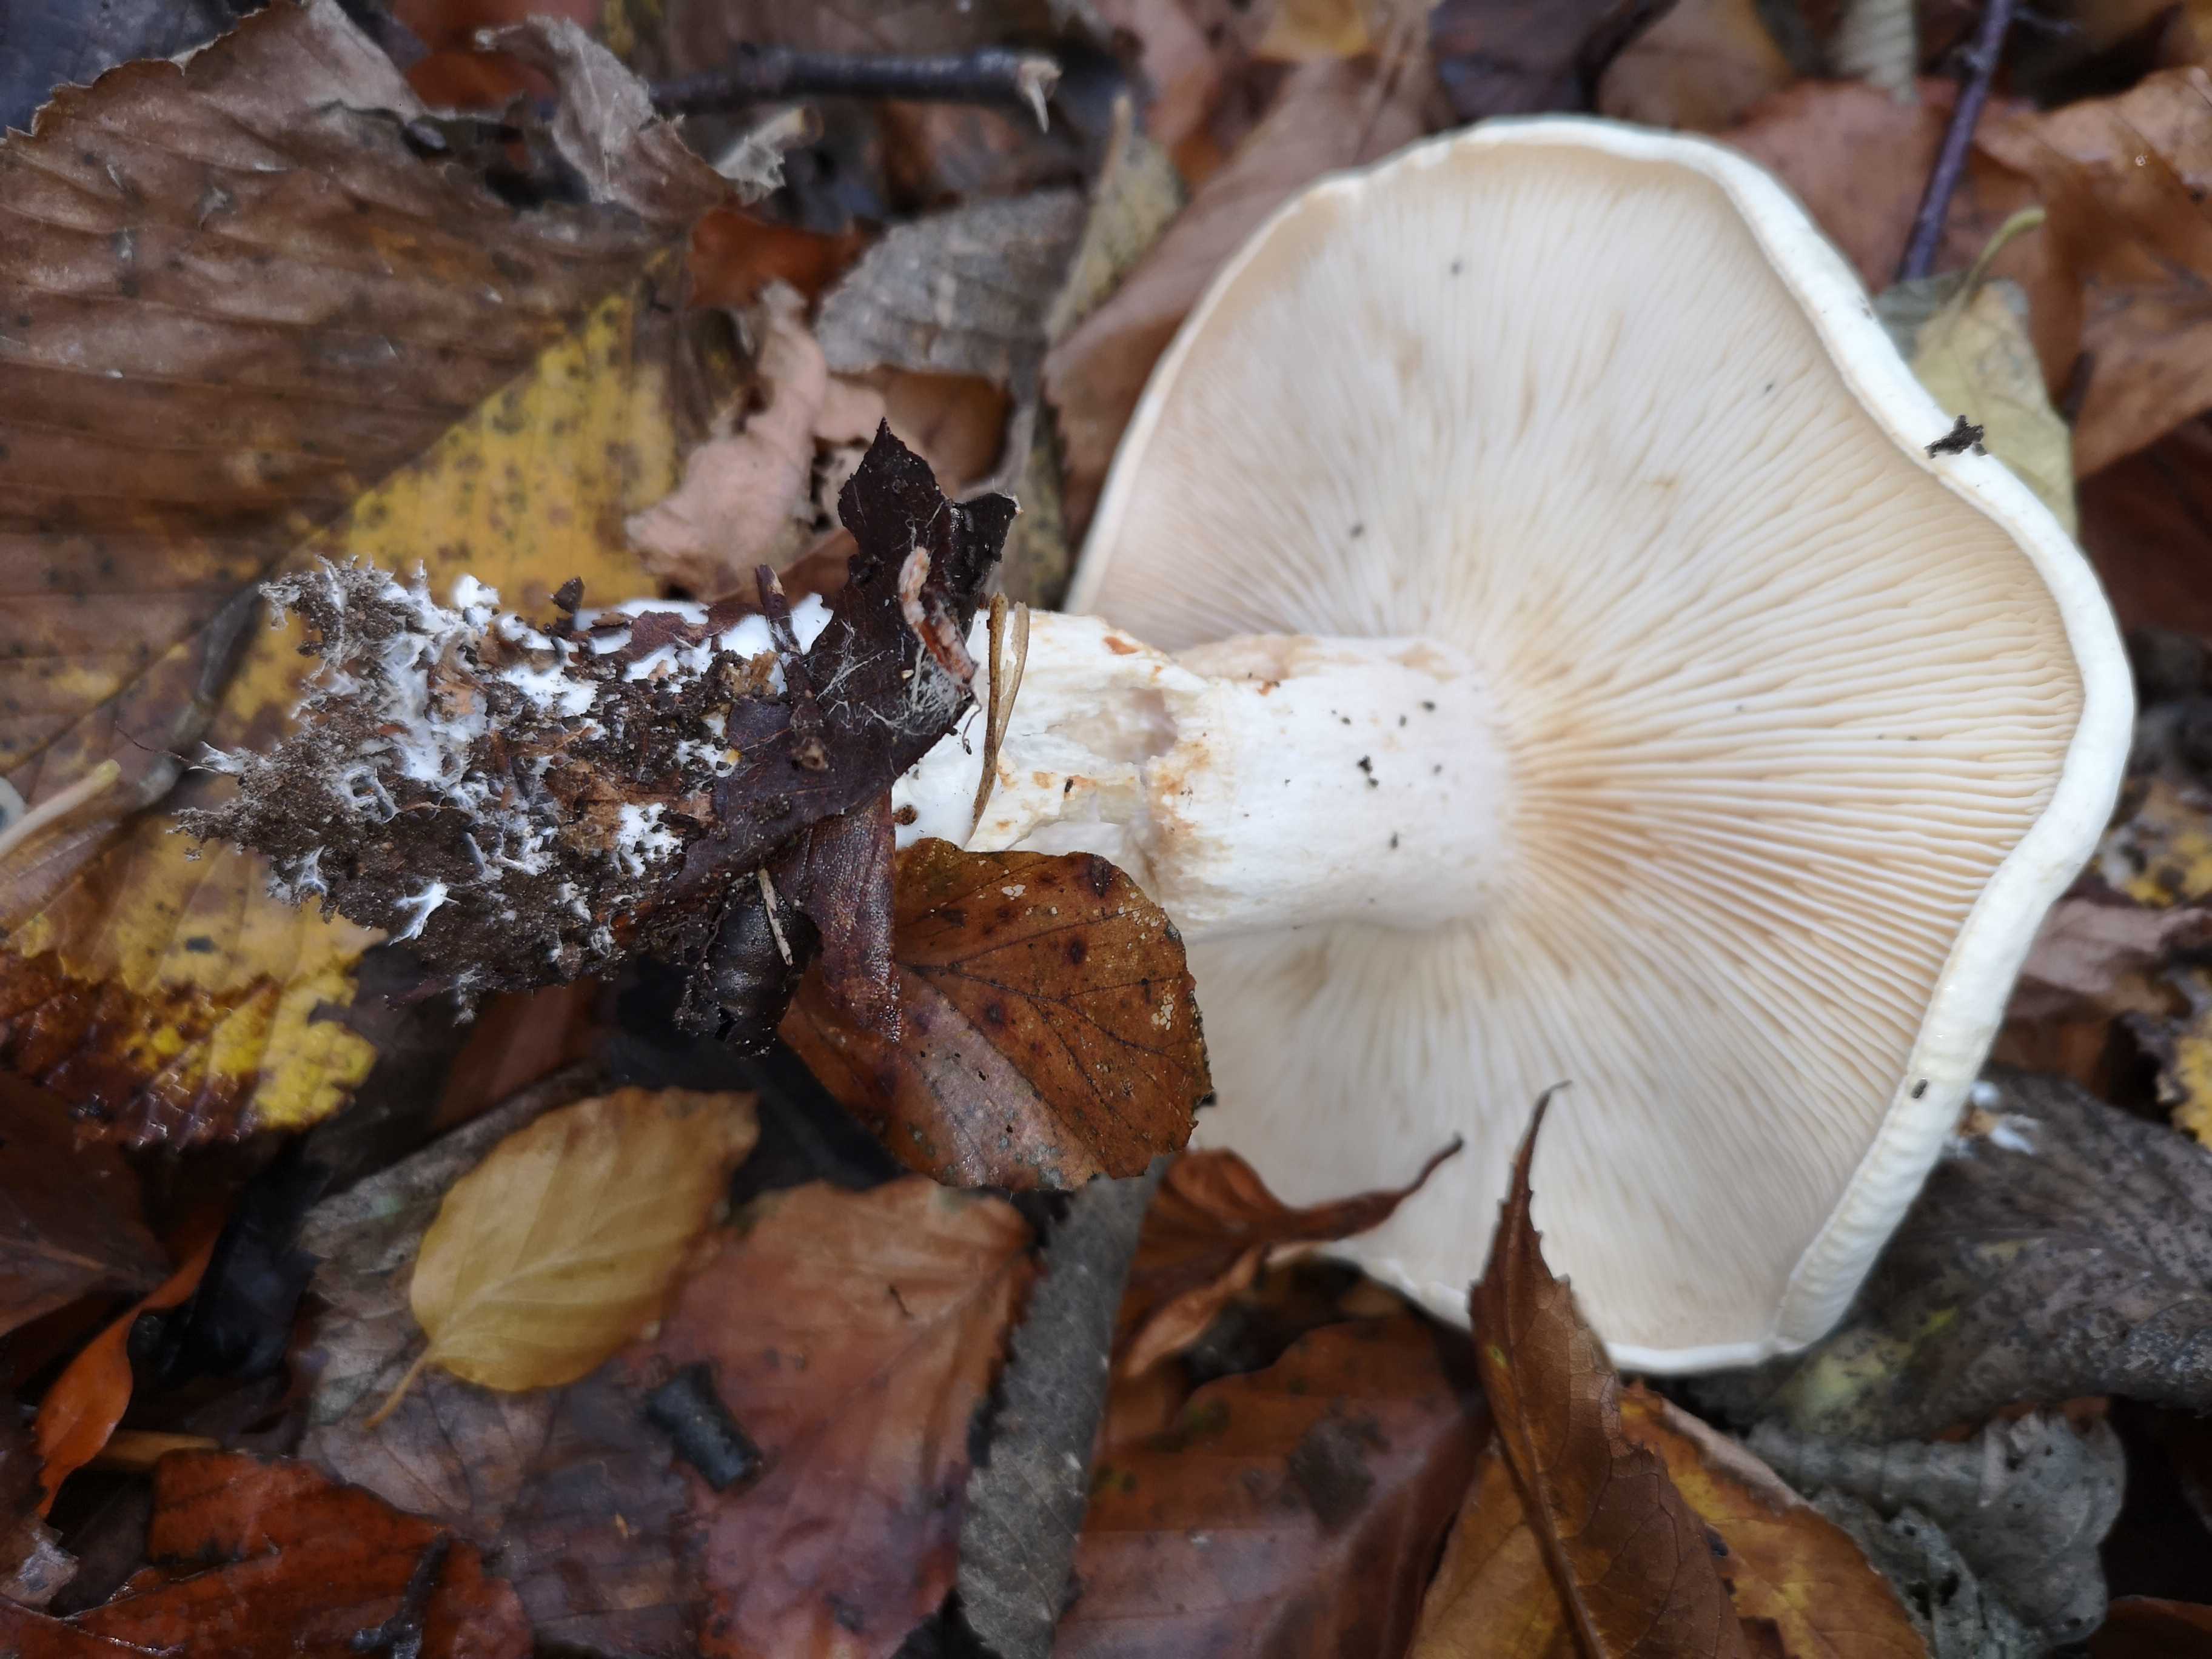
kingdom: Fungi
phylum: Basidiomycota
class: Agaricomycetes
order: Agaricales
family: Tricholomataceae
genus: Tricholoma
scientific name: Tricholoma stiparophyllum
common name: hvid ridderhat
